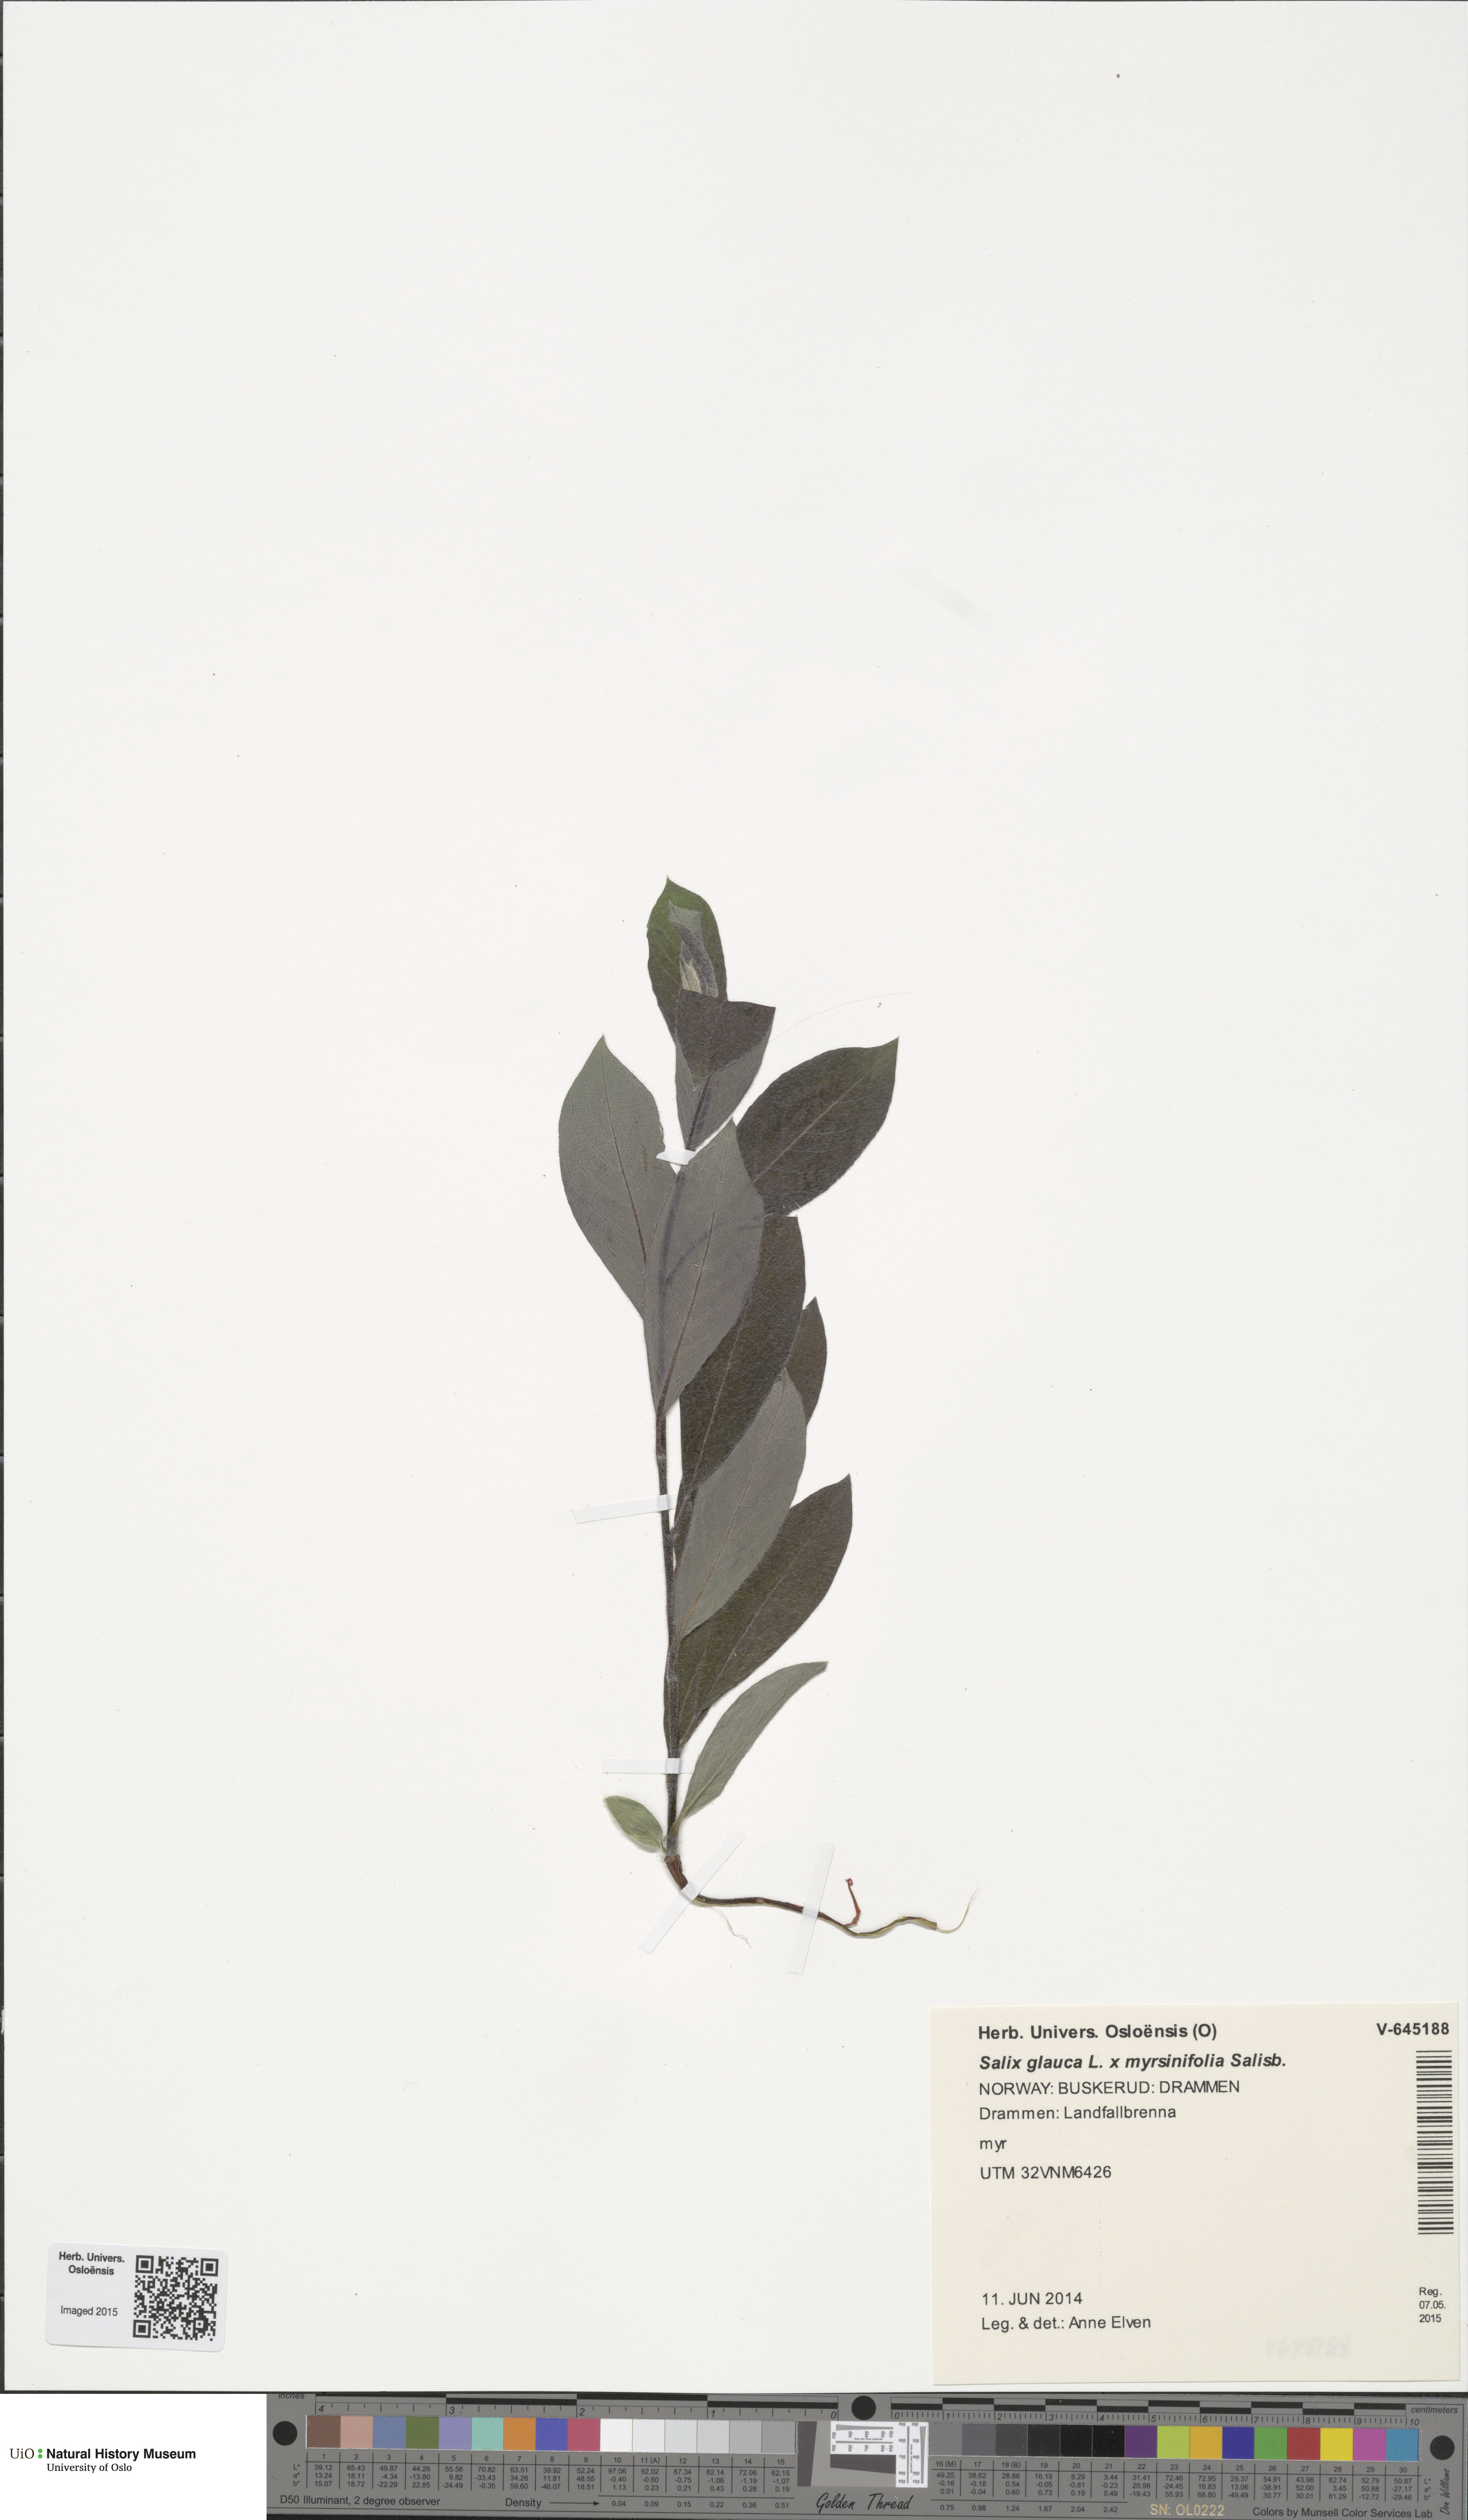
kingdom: Plantae
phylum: Tracheophyta
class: Magnoliopsida
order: Malpighiales
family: Salicaceae
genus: Salix
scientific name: Salix
